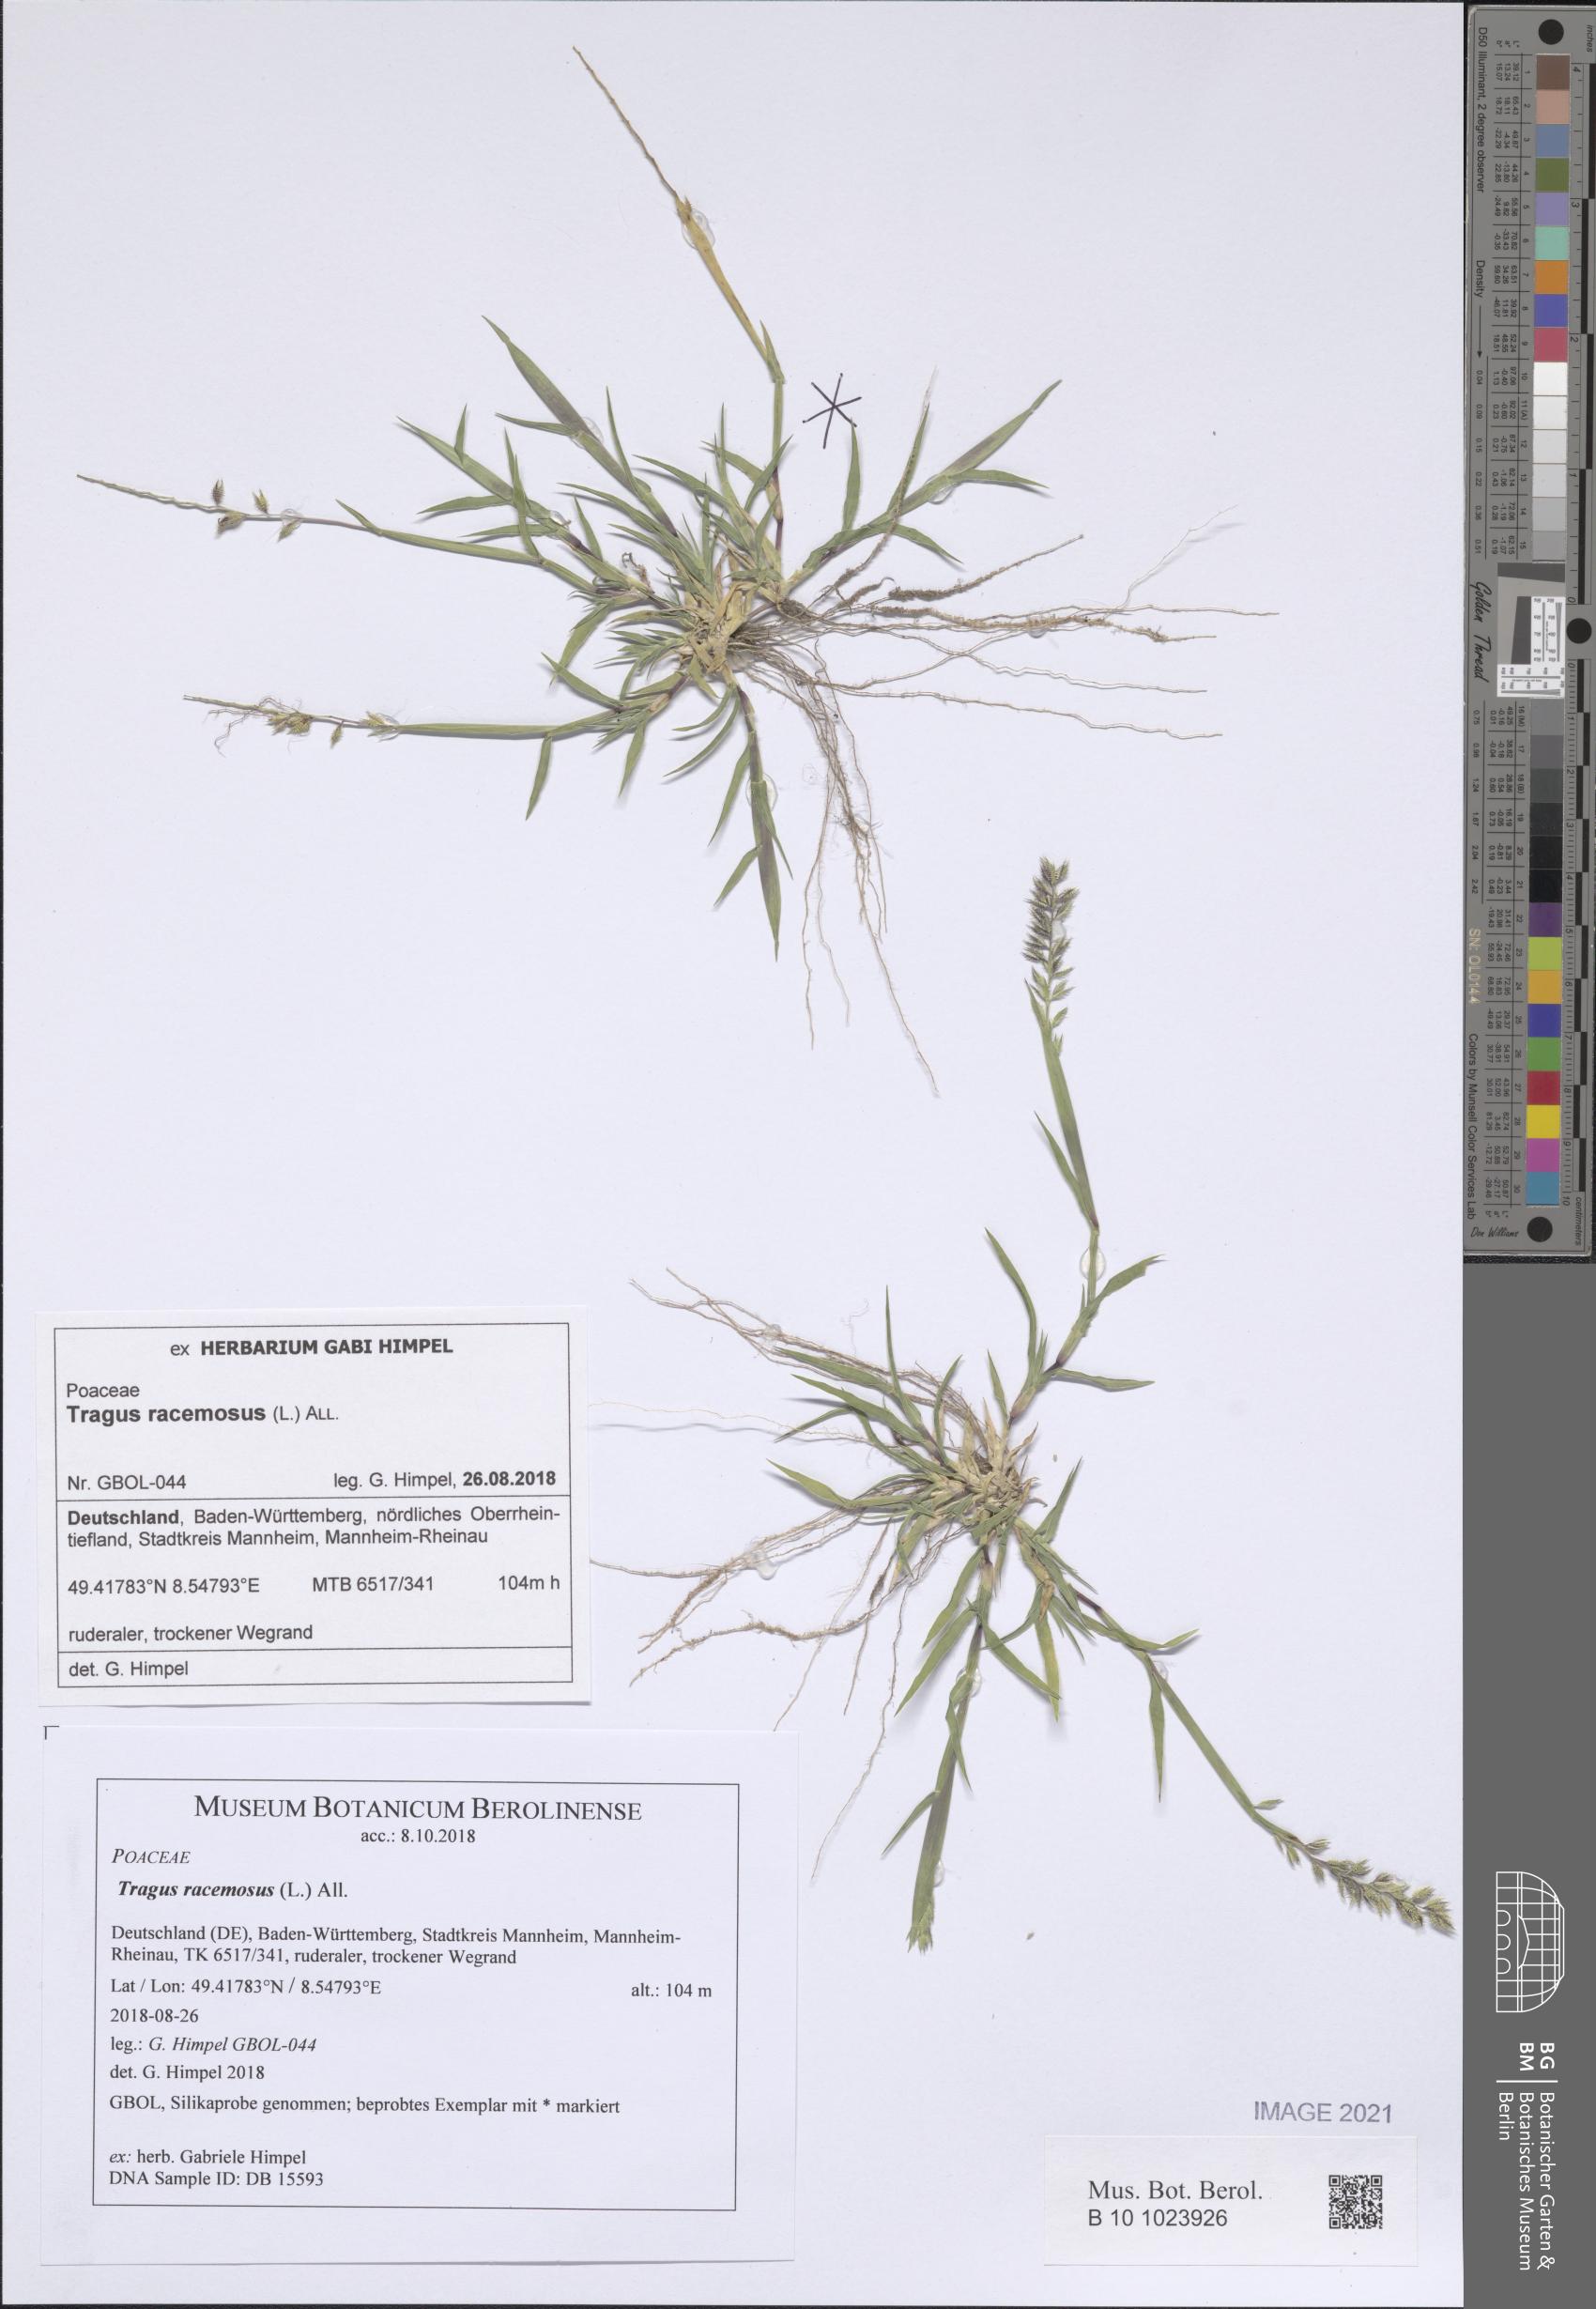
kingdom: Plantae
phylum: Tracheophyta
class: Liliopsida
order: Poales
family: Poaceae
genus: Tragus
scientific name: Tragus racemosus
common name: European bur-grass
